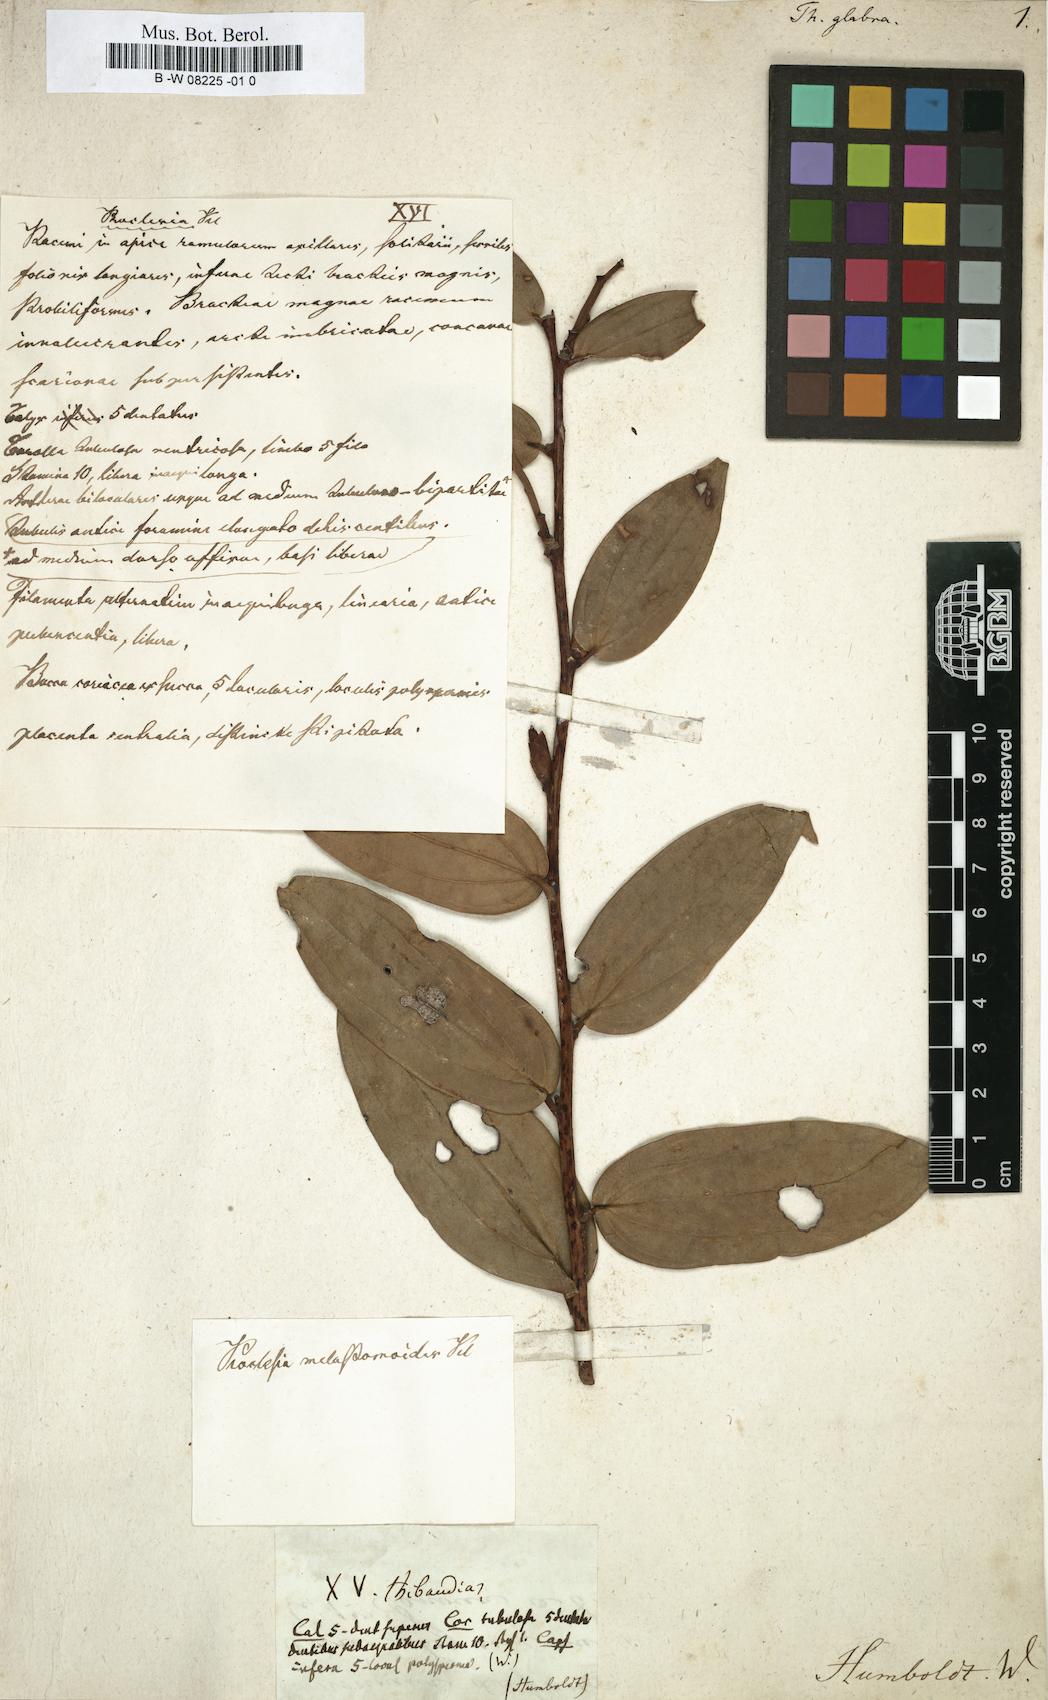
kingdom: Plantae
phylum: Tracheophyta
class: Magnoliopsida
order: Ericales
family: Ericaceae
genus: Agapetes
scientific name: Agapetes affinis
